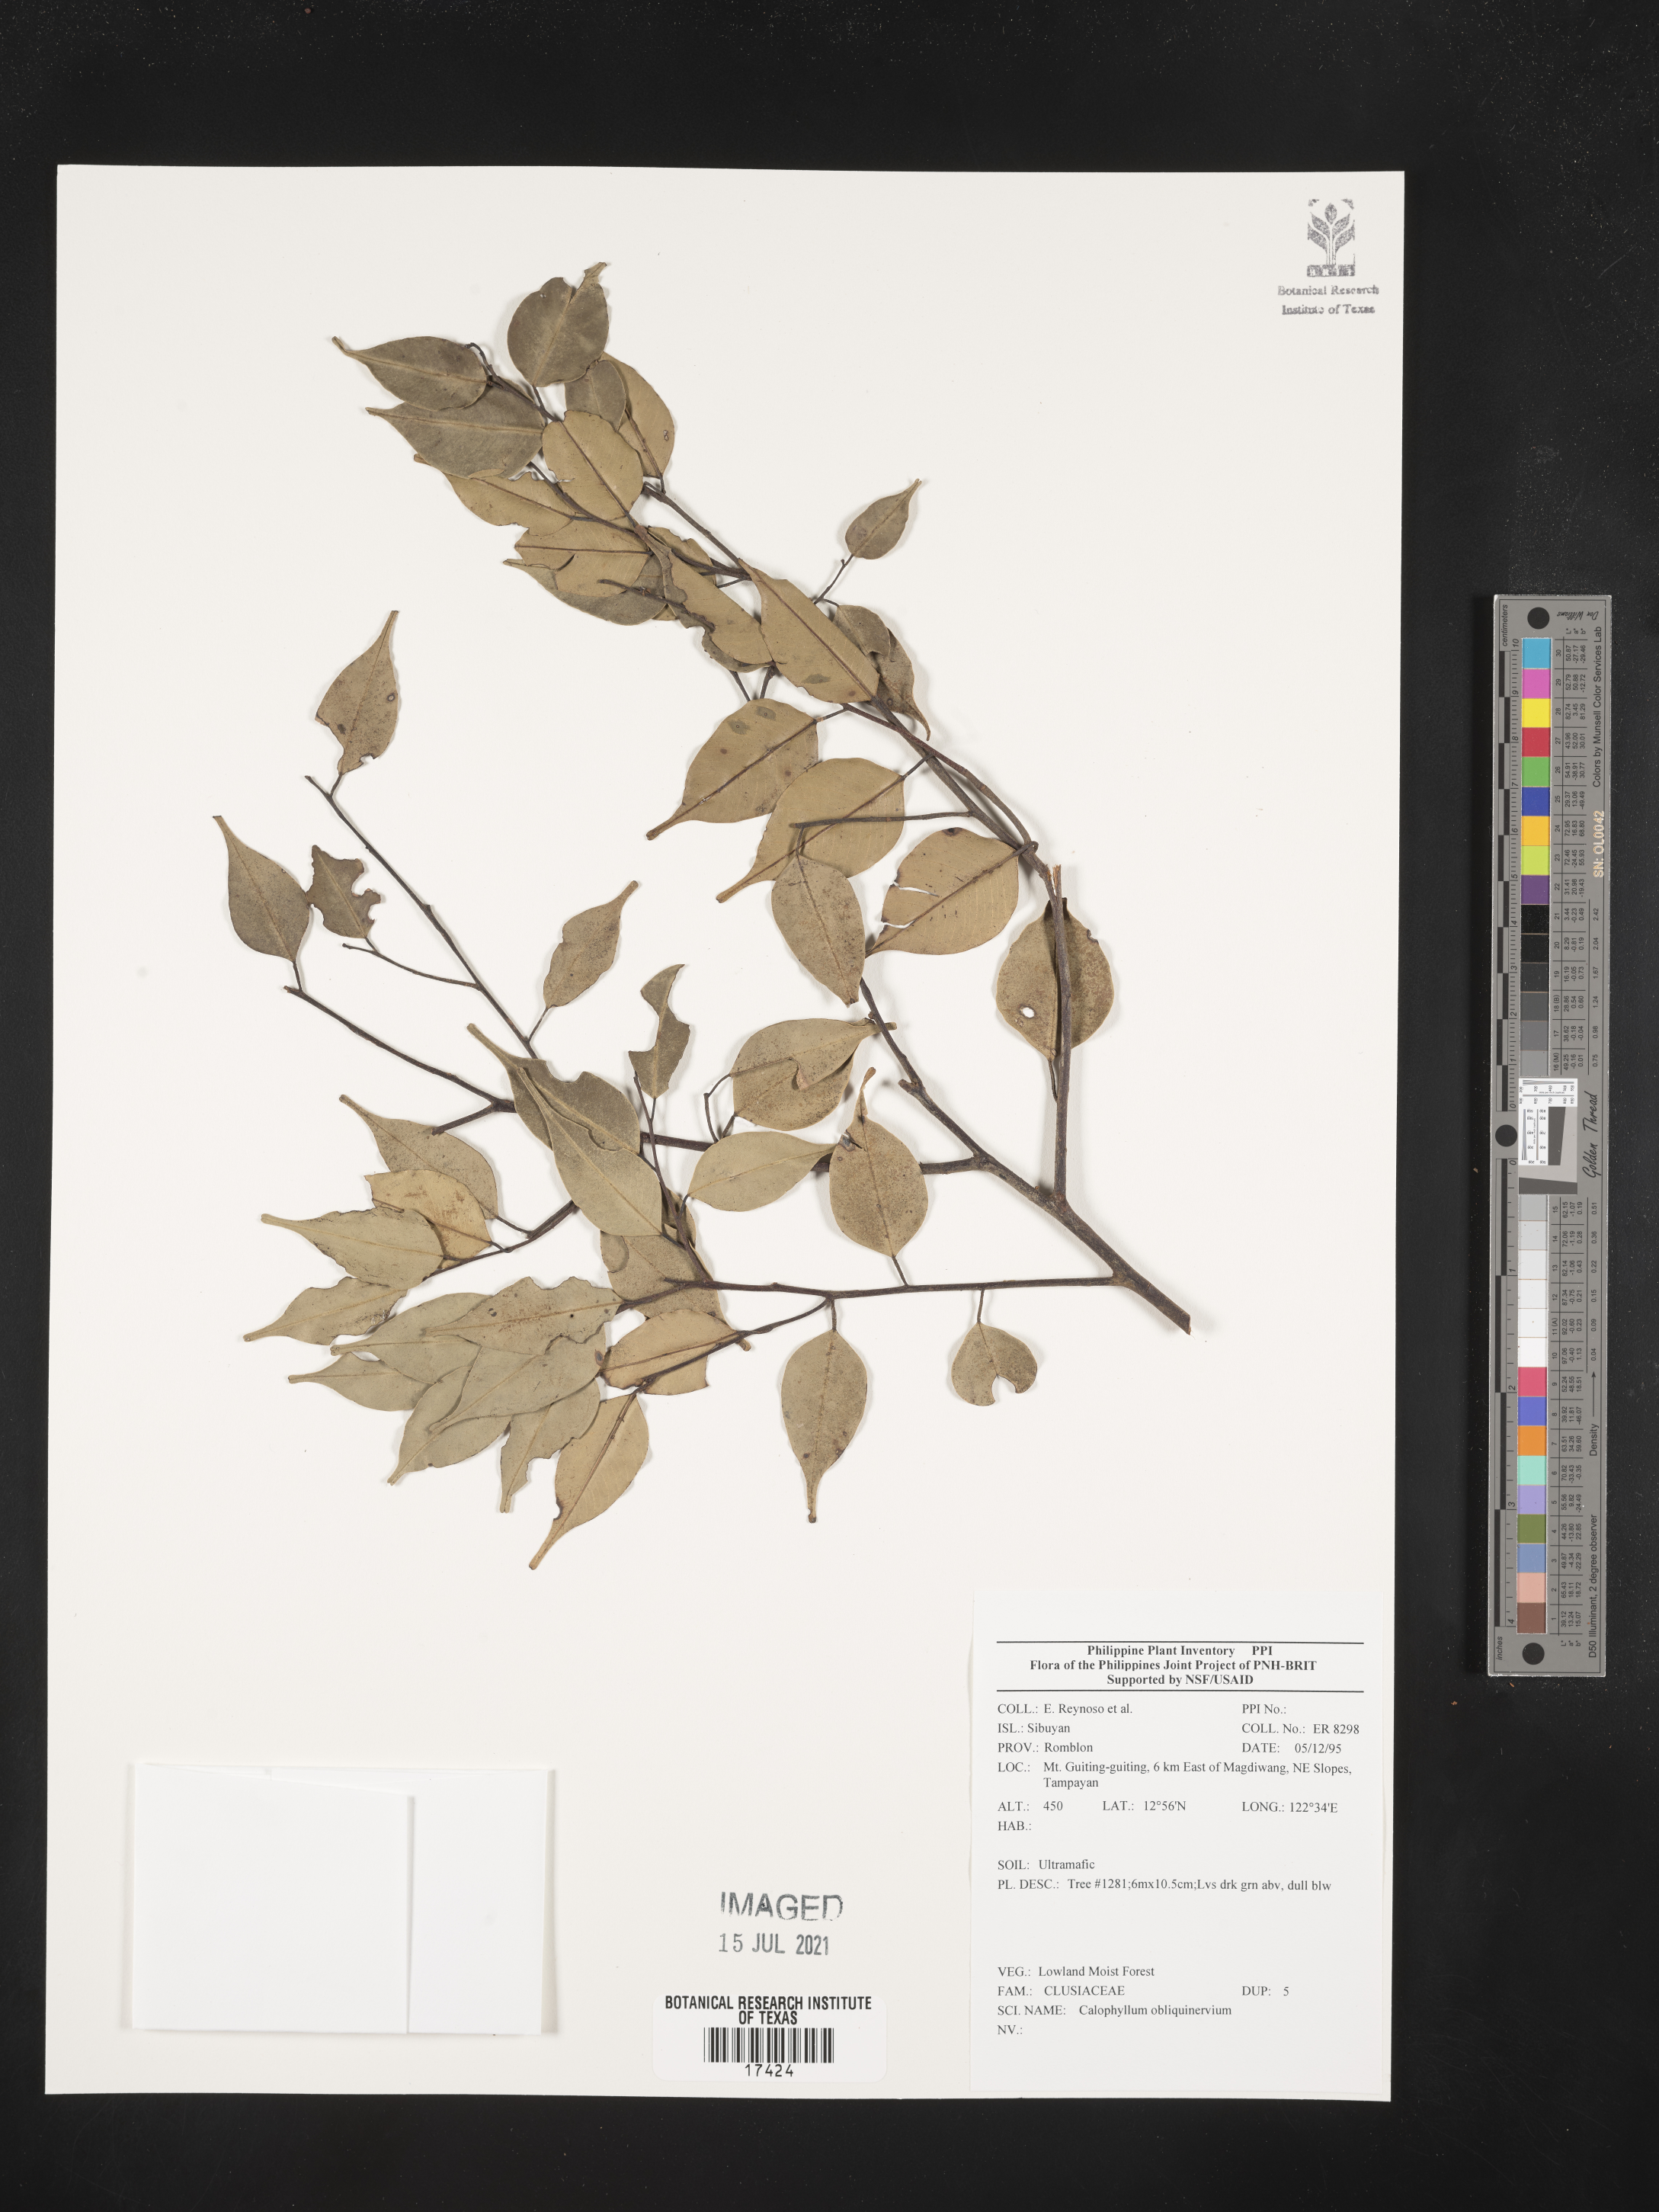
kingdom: Plantae
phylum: Tracheophyta
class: Magnoliopsida
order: Malpighiales
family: Calophyllaceae
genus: Calophyllum
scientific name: Calophyllum obliquinervium
